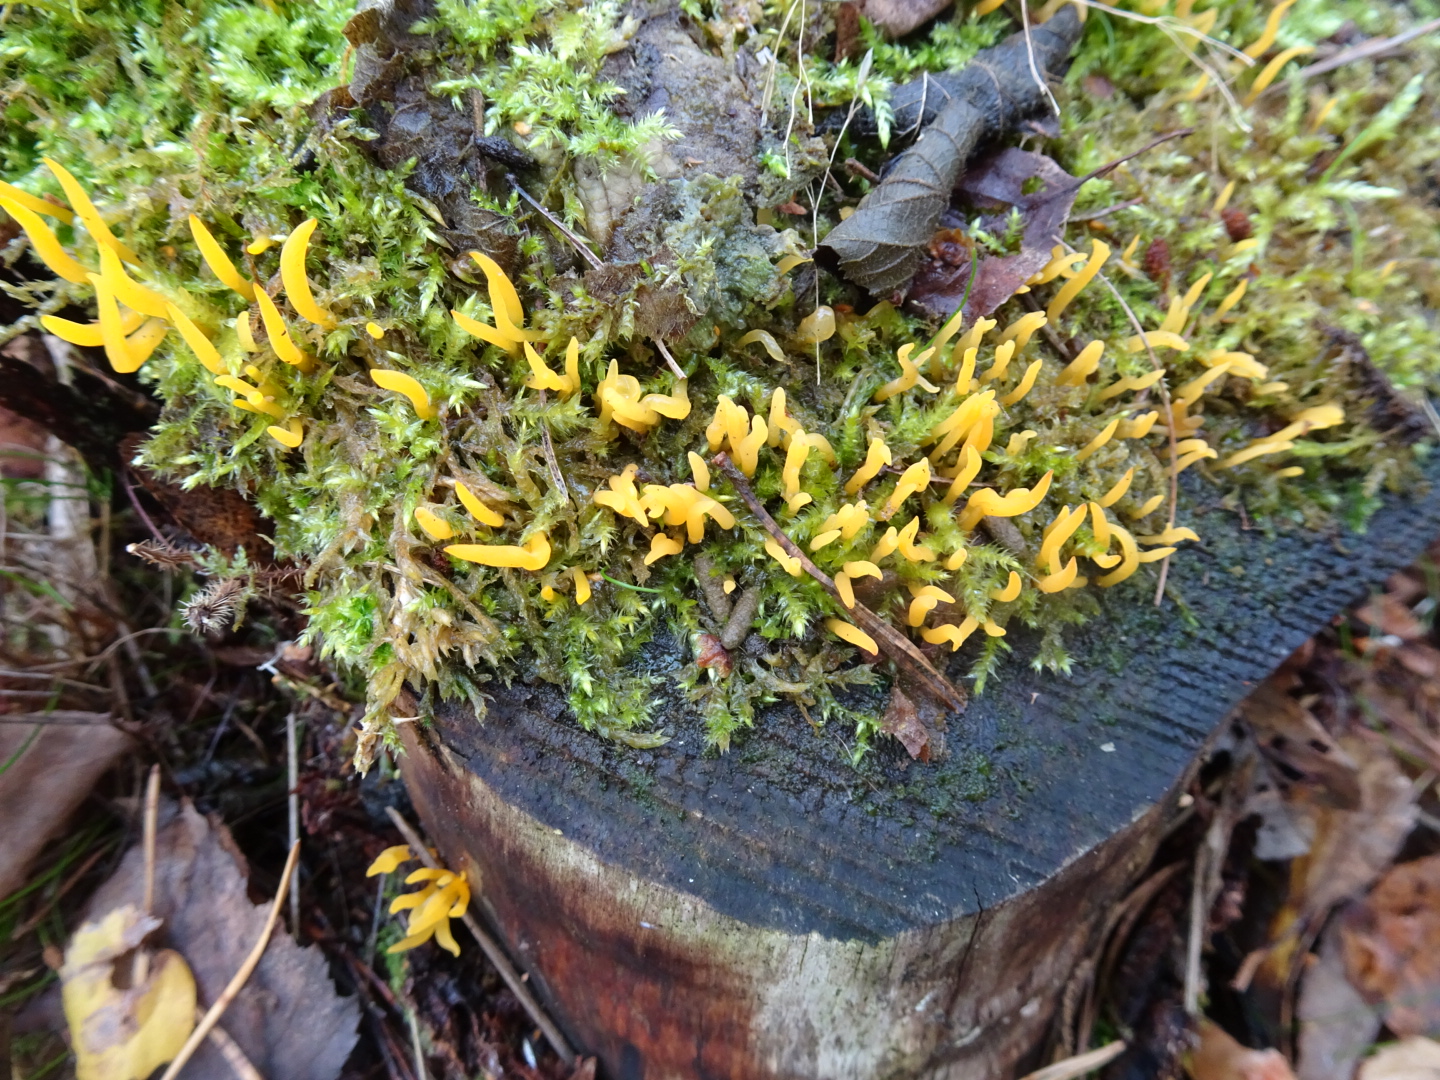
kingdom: Fungi
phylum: Basidiomycota
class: Dacrymycetes
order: Dacrymycetales
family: Dacrymycetaceae
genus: Calocera
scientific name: Calocera cornea
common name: liden guldgaffel
